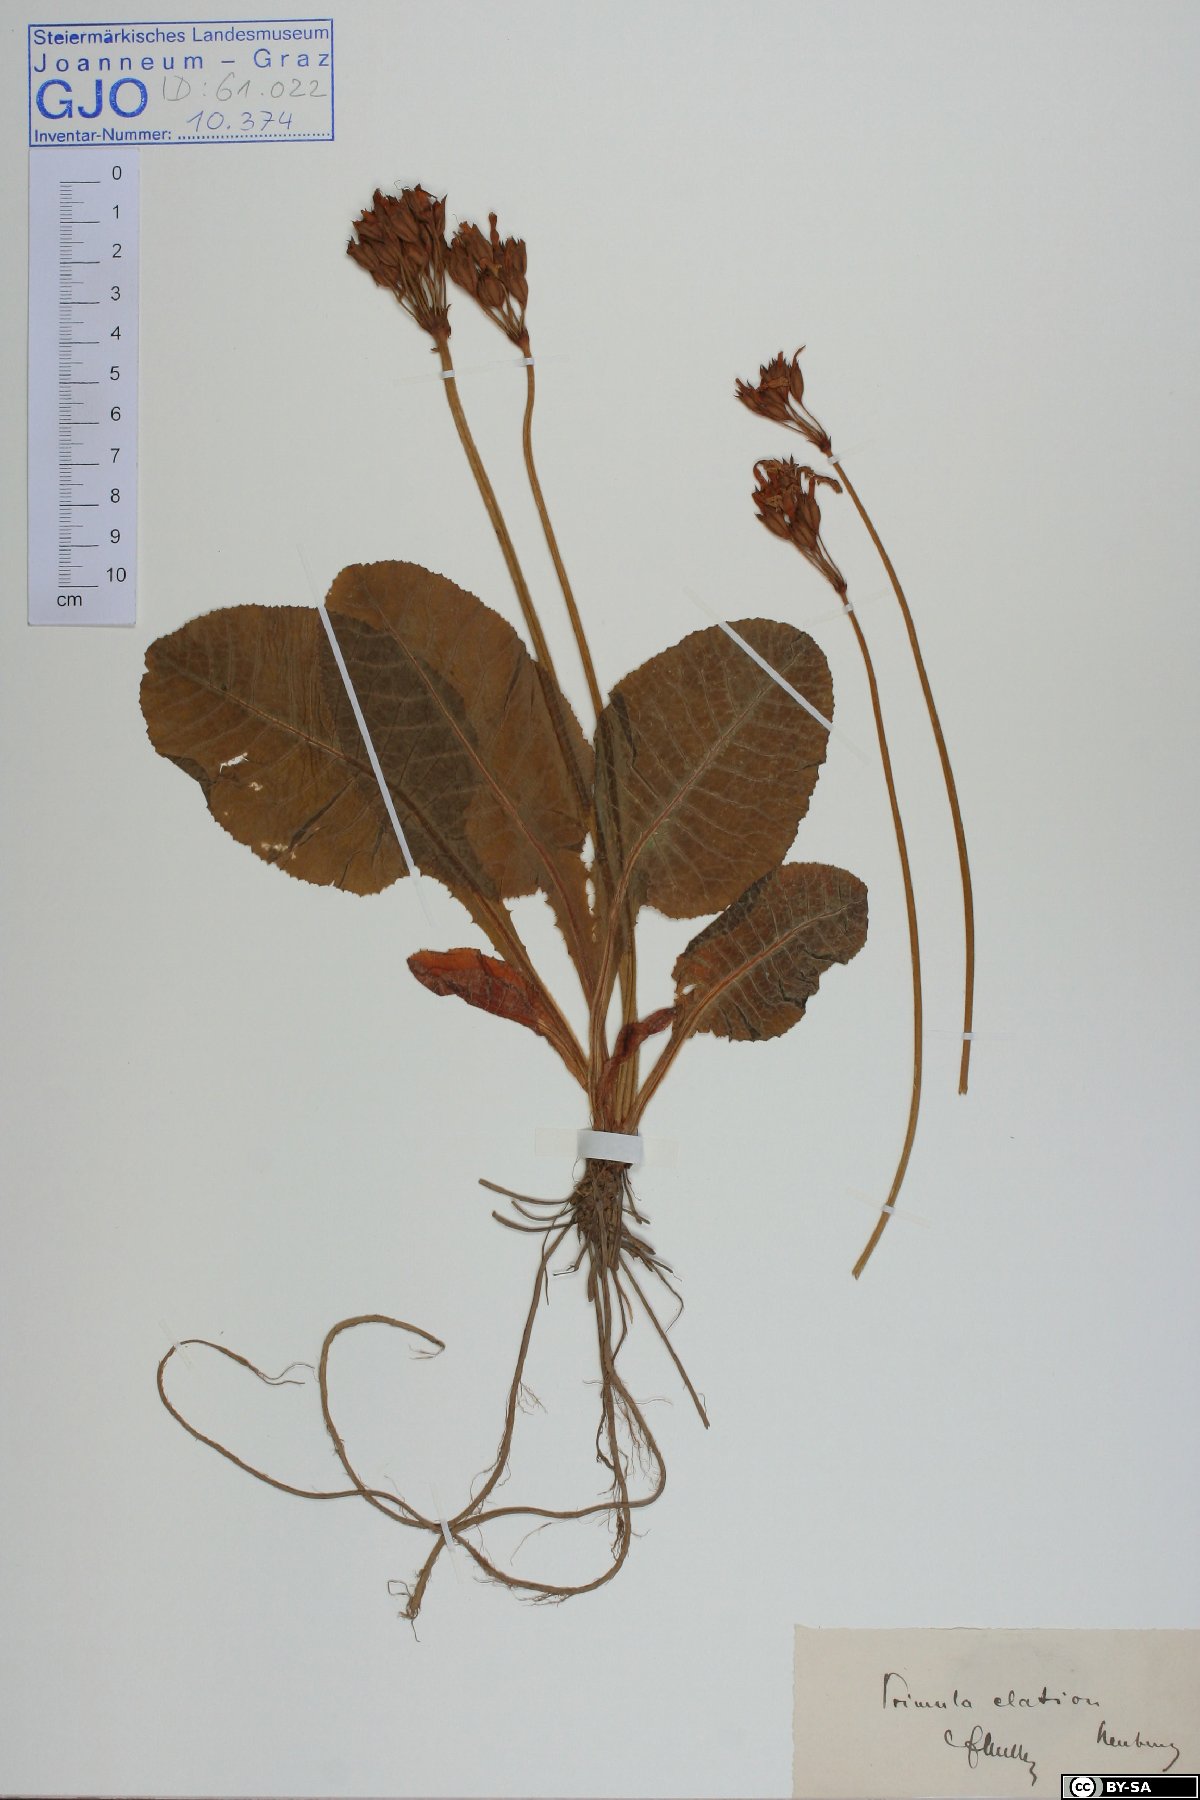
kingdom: Plantae
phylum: Tracheophyta
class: Magnoliopsida
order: Ericales
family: Primulaceae
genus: Primula
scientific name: Primula elatior
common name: Oxlip
